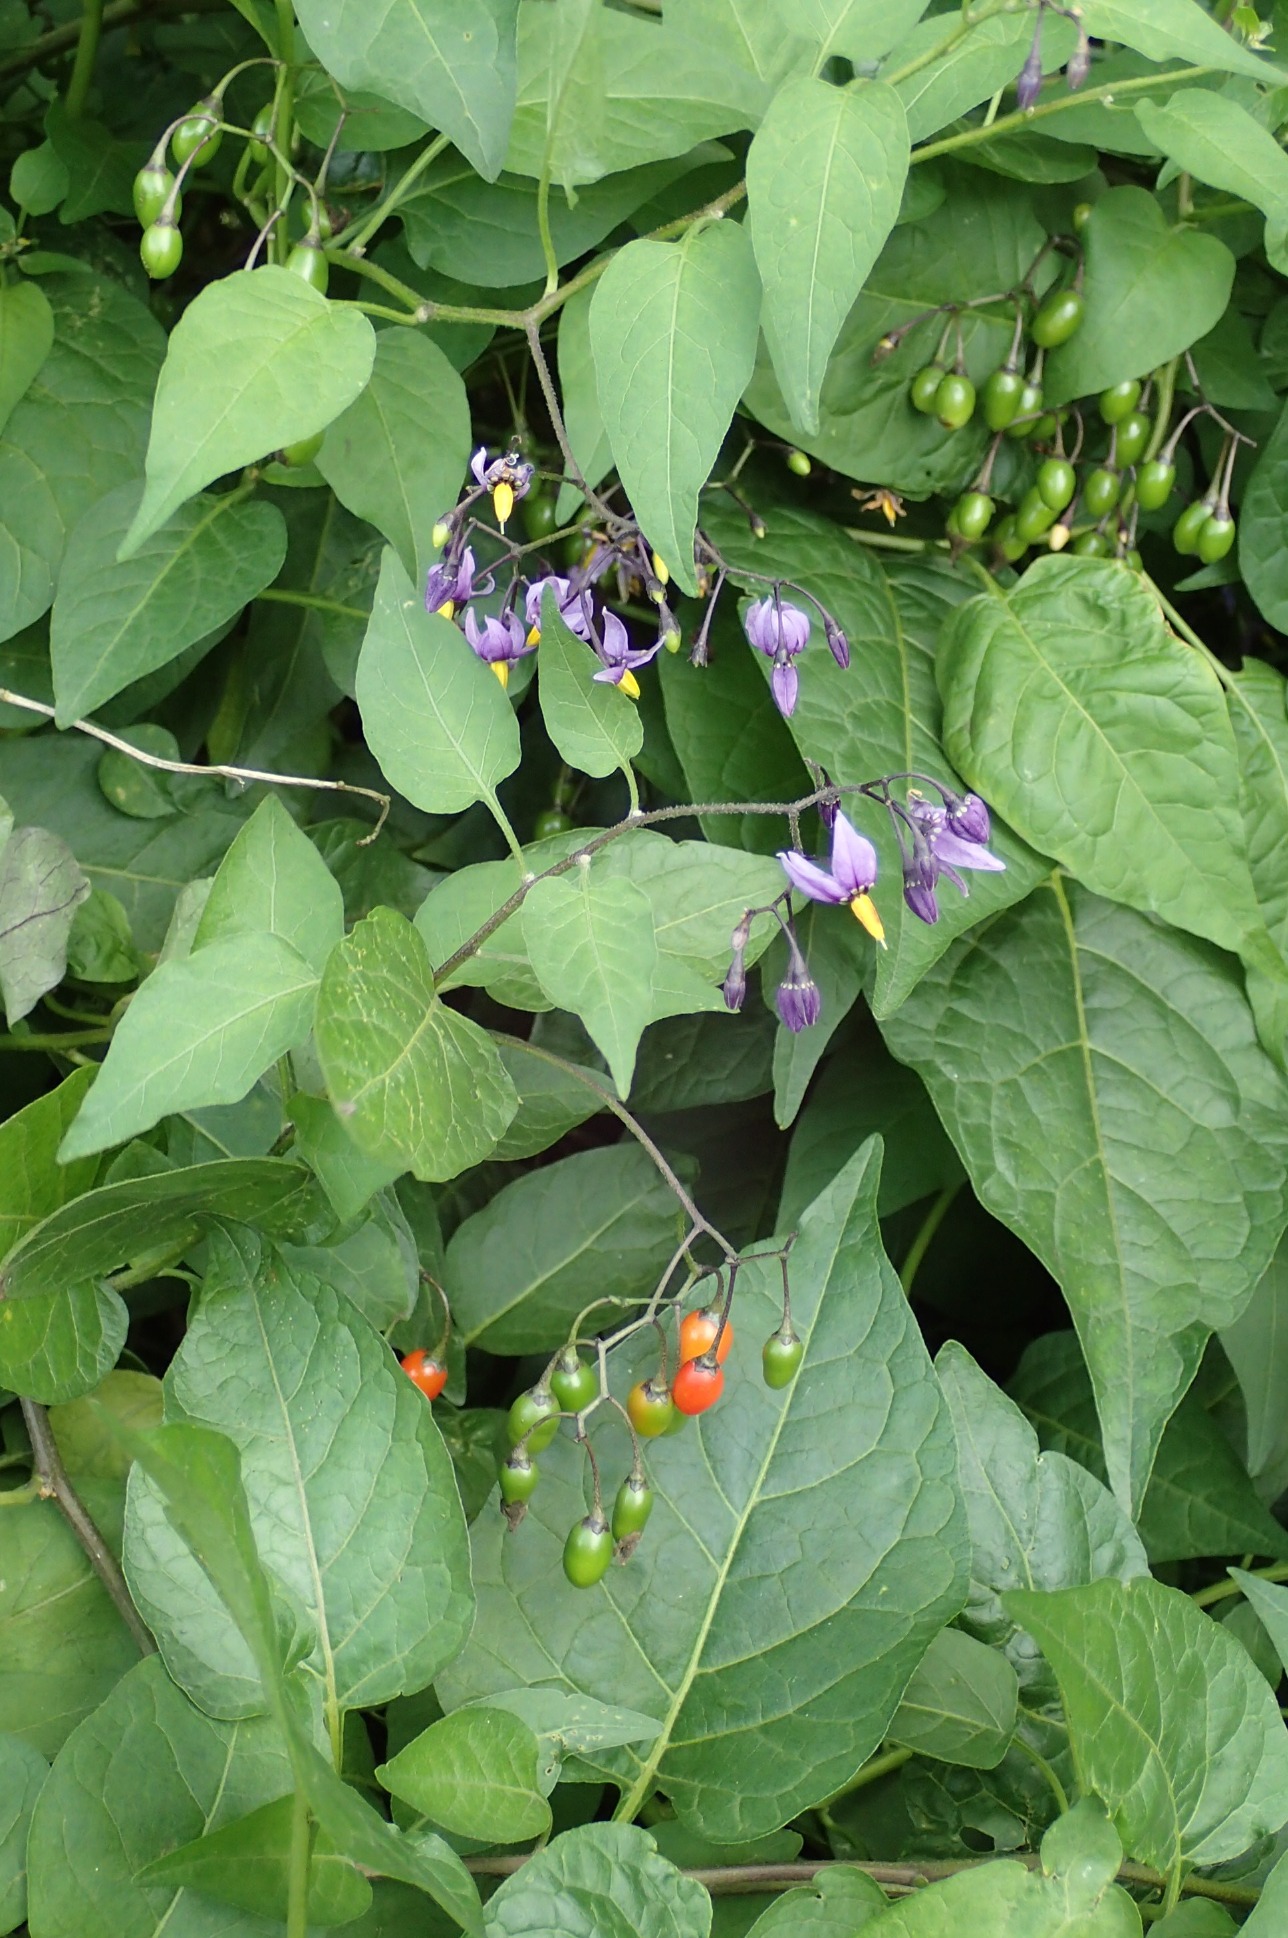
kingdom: Plantae
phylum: Tracheophyta
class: Magnoliopsida
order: Solanales
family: Solanaceae
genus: Solanum
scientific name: Solanum dulcamara
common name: Bittersød natskygge
